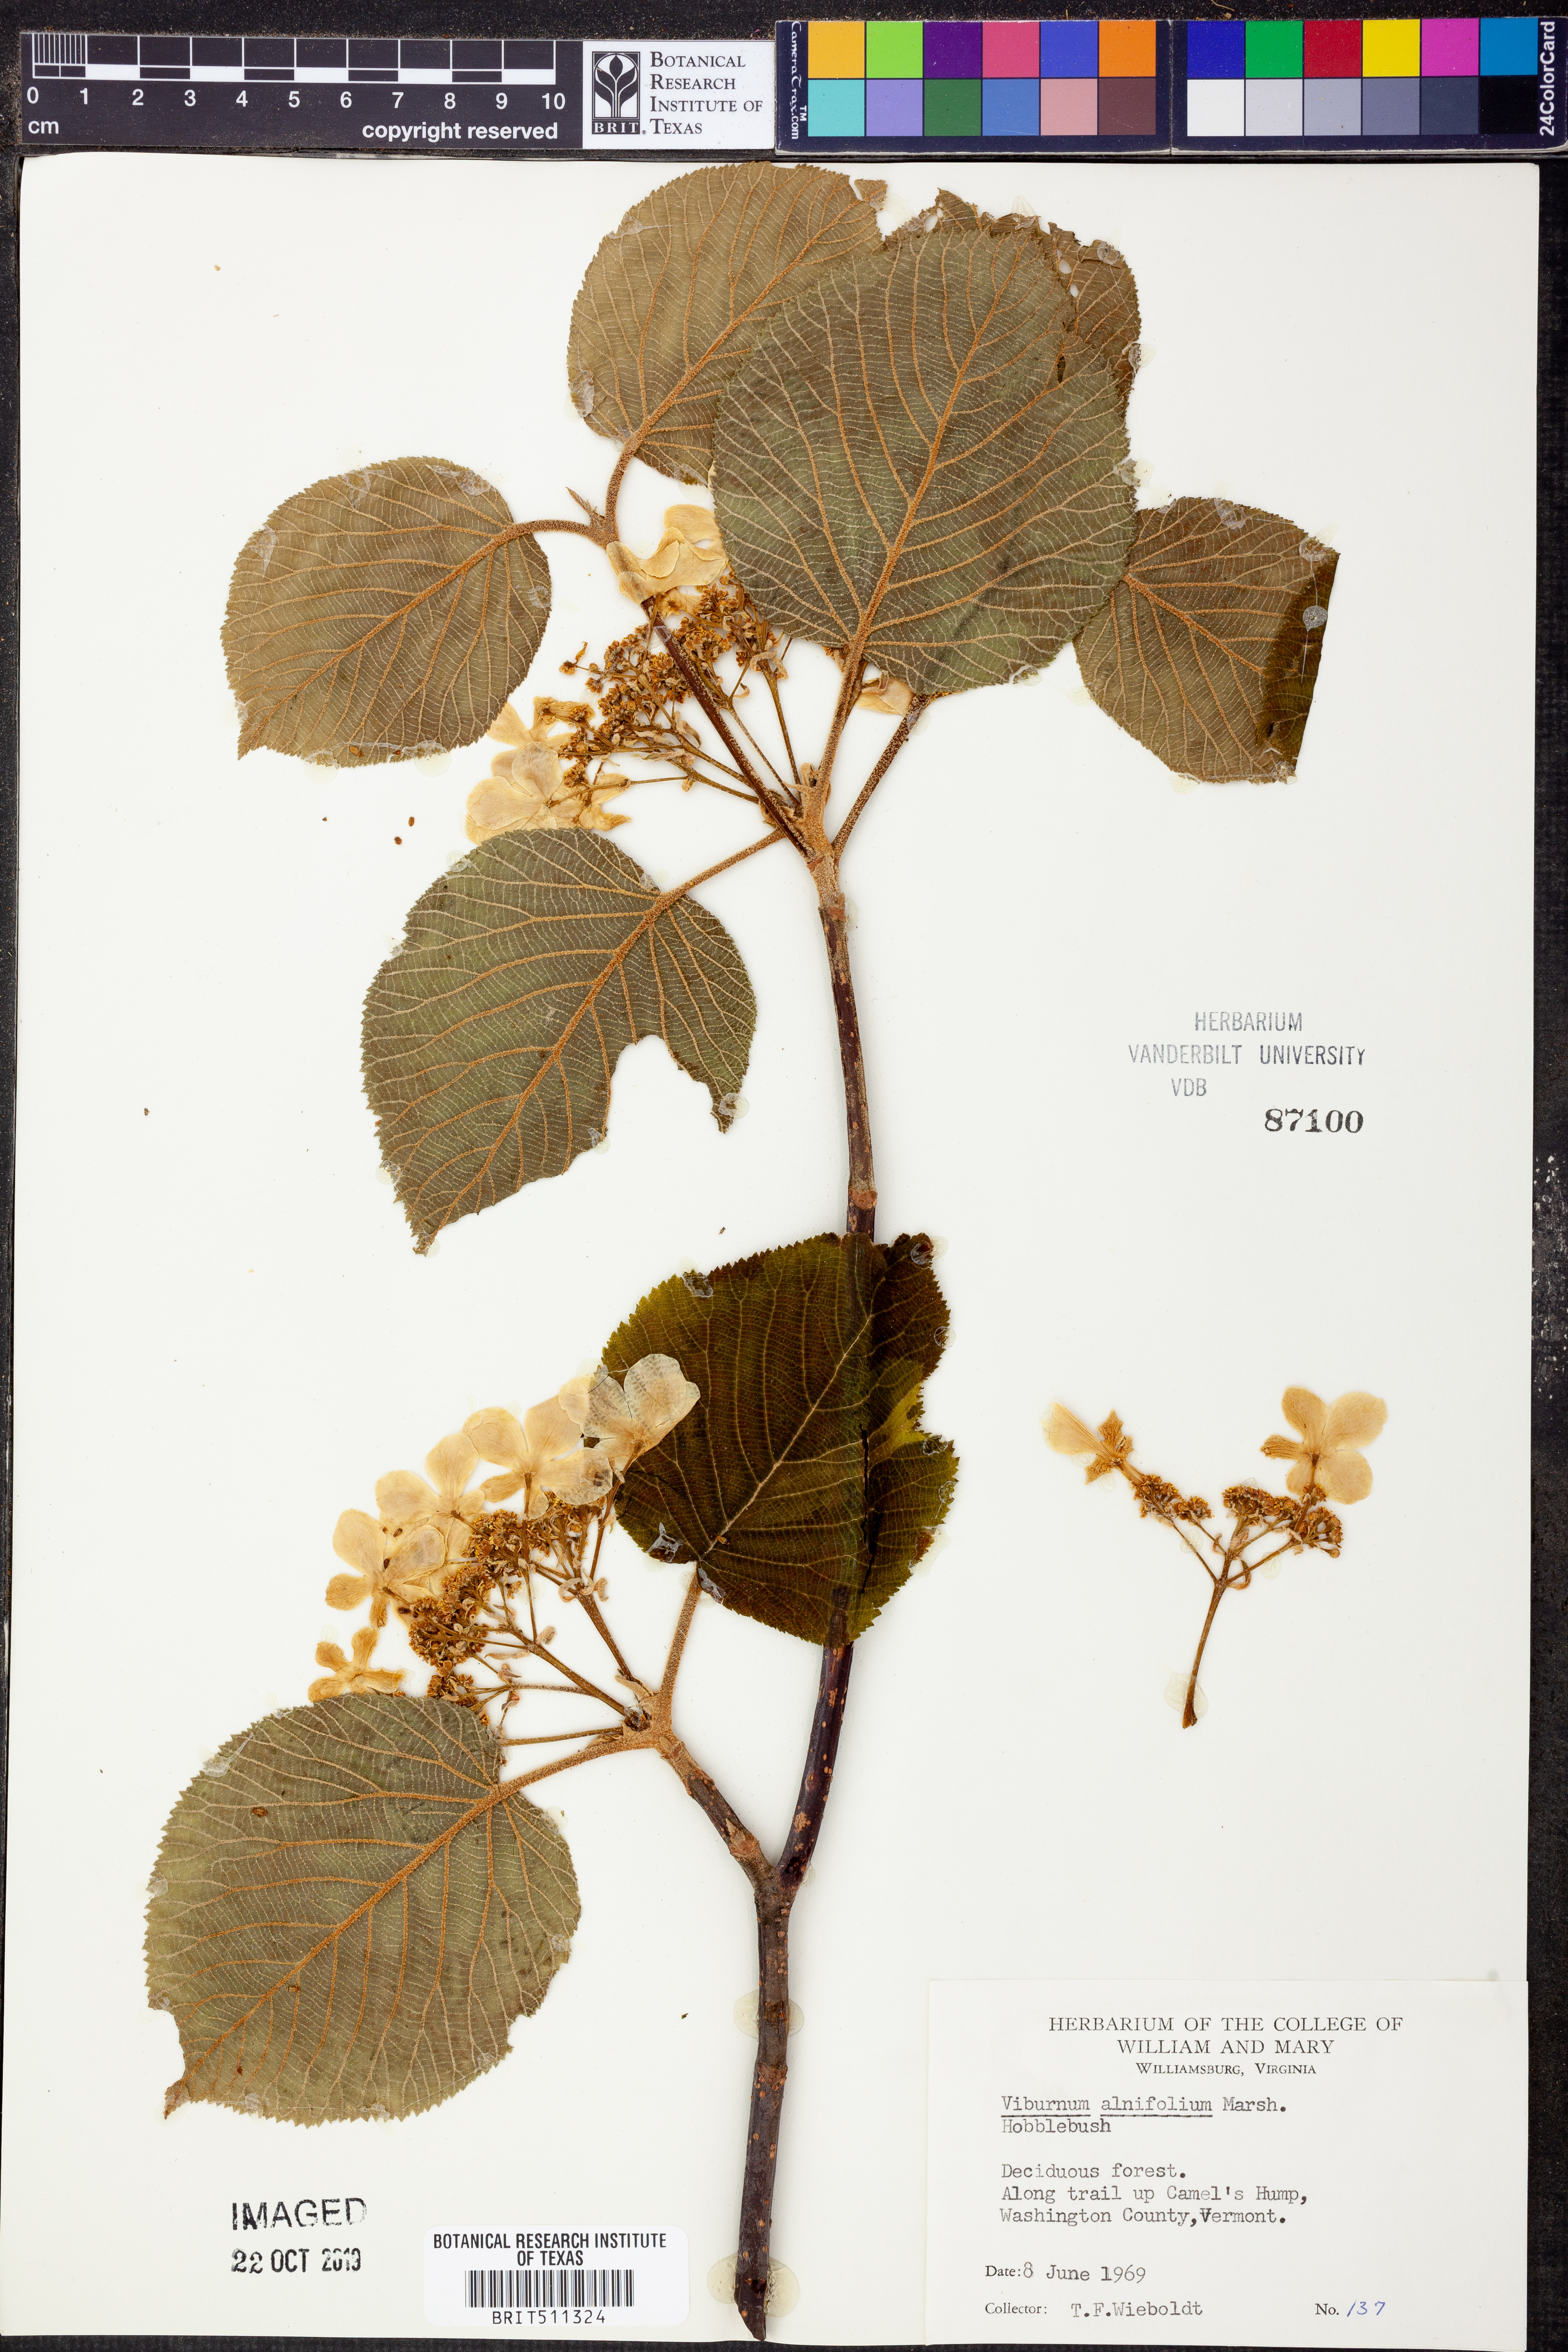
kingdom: Plantae
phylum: Tracheophyta
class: Magnoliopsida
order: Dipsacales
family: Viburnaceae
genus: Viburnum
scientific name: Viburnum lantanoides
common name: Hobblebush
